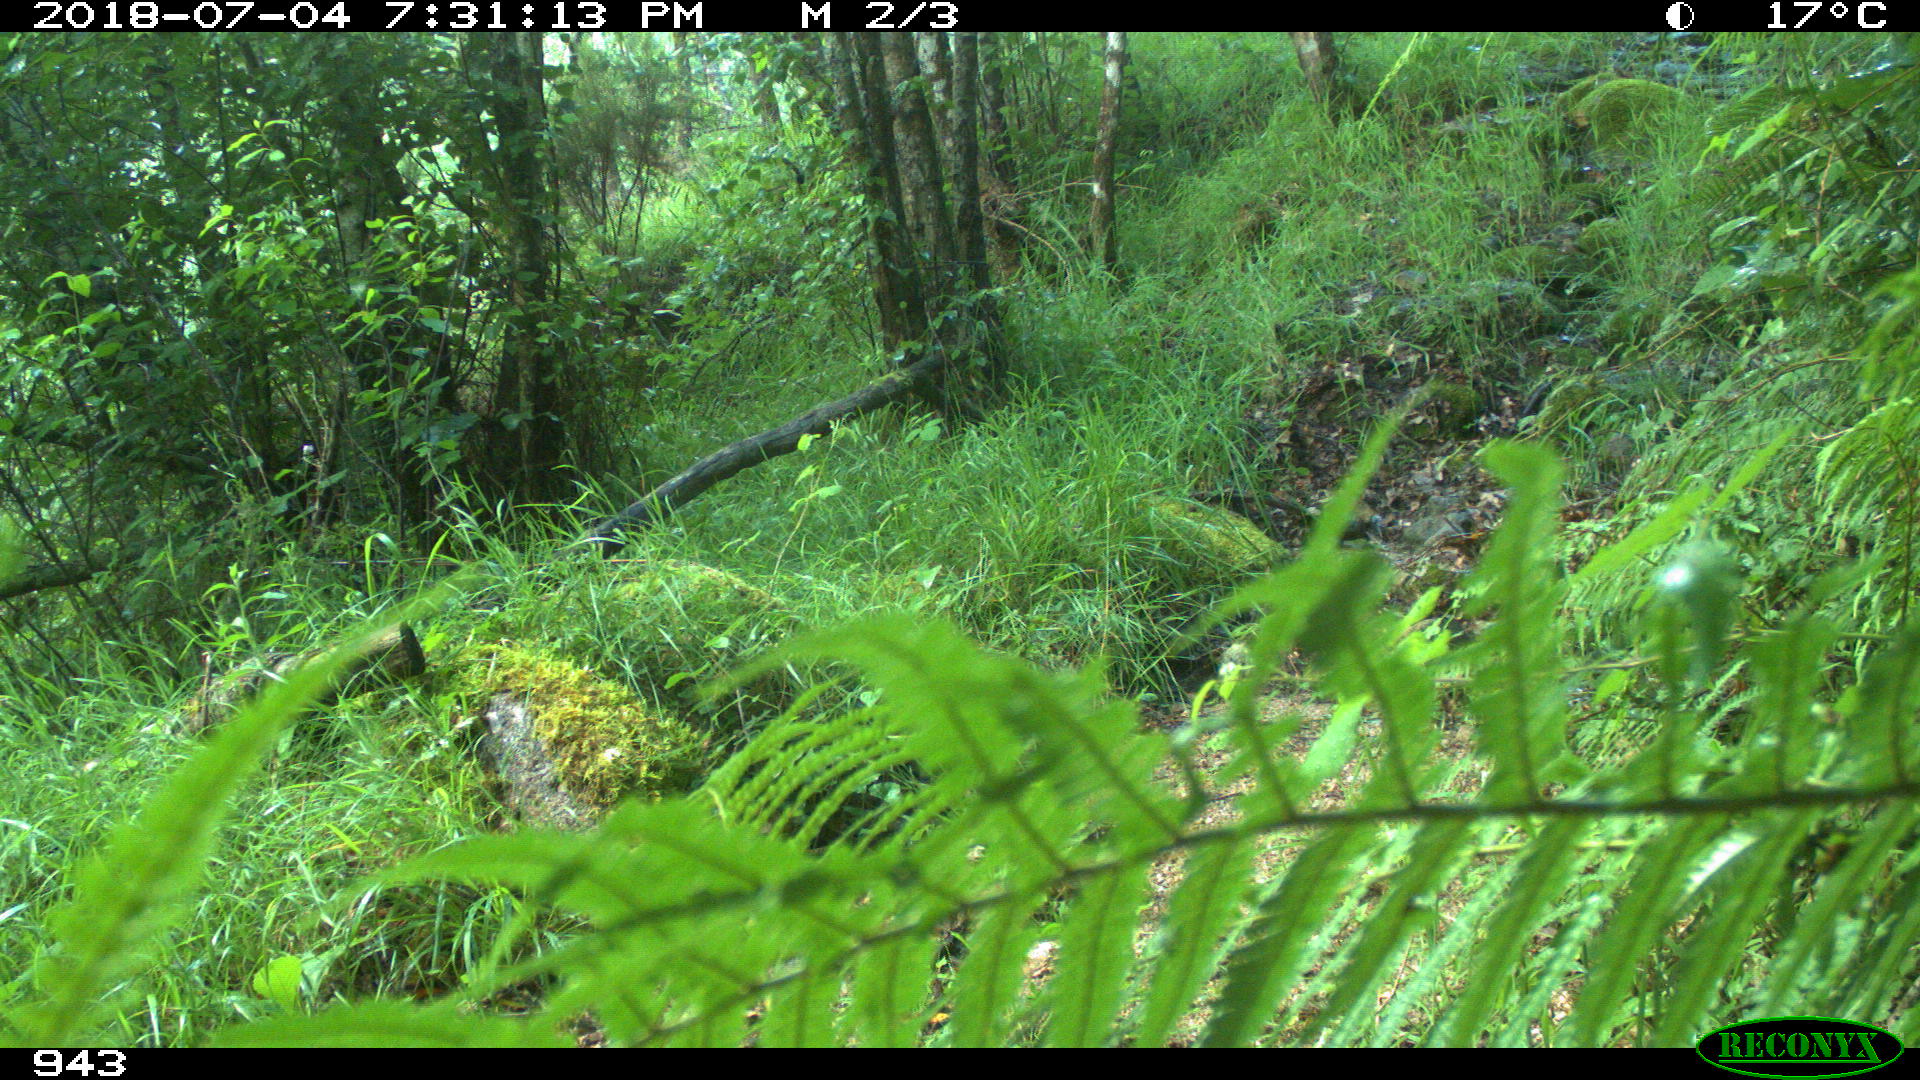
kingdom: Animalia
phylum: Chordata
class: Mammalia
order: Artiodactyla
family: Cervidae
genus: Capreolus
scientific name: Capreolus capreolus
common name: Western roe deer
